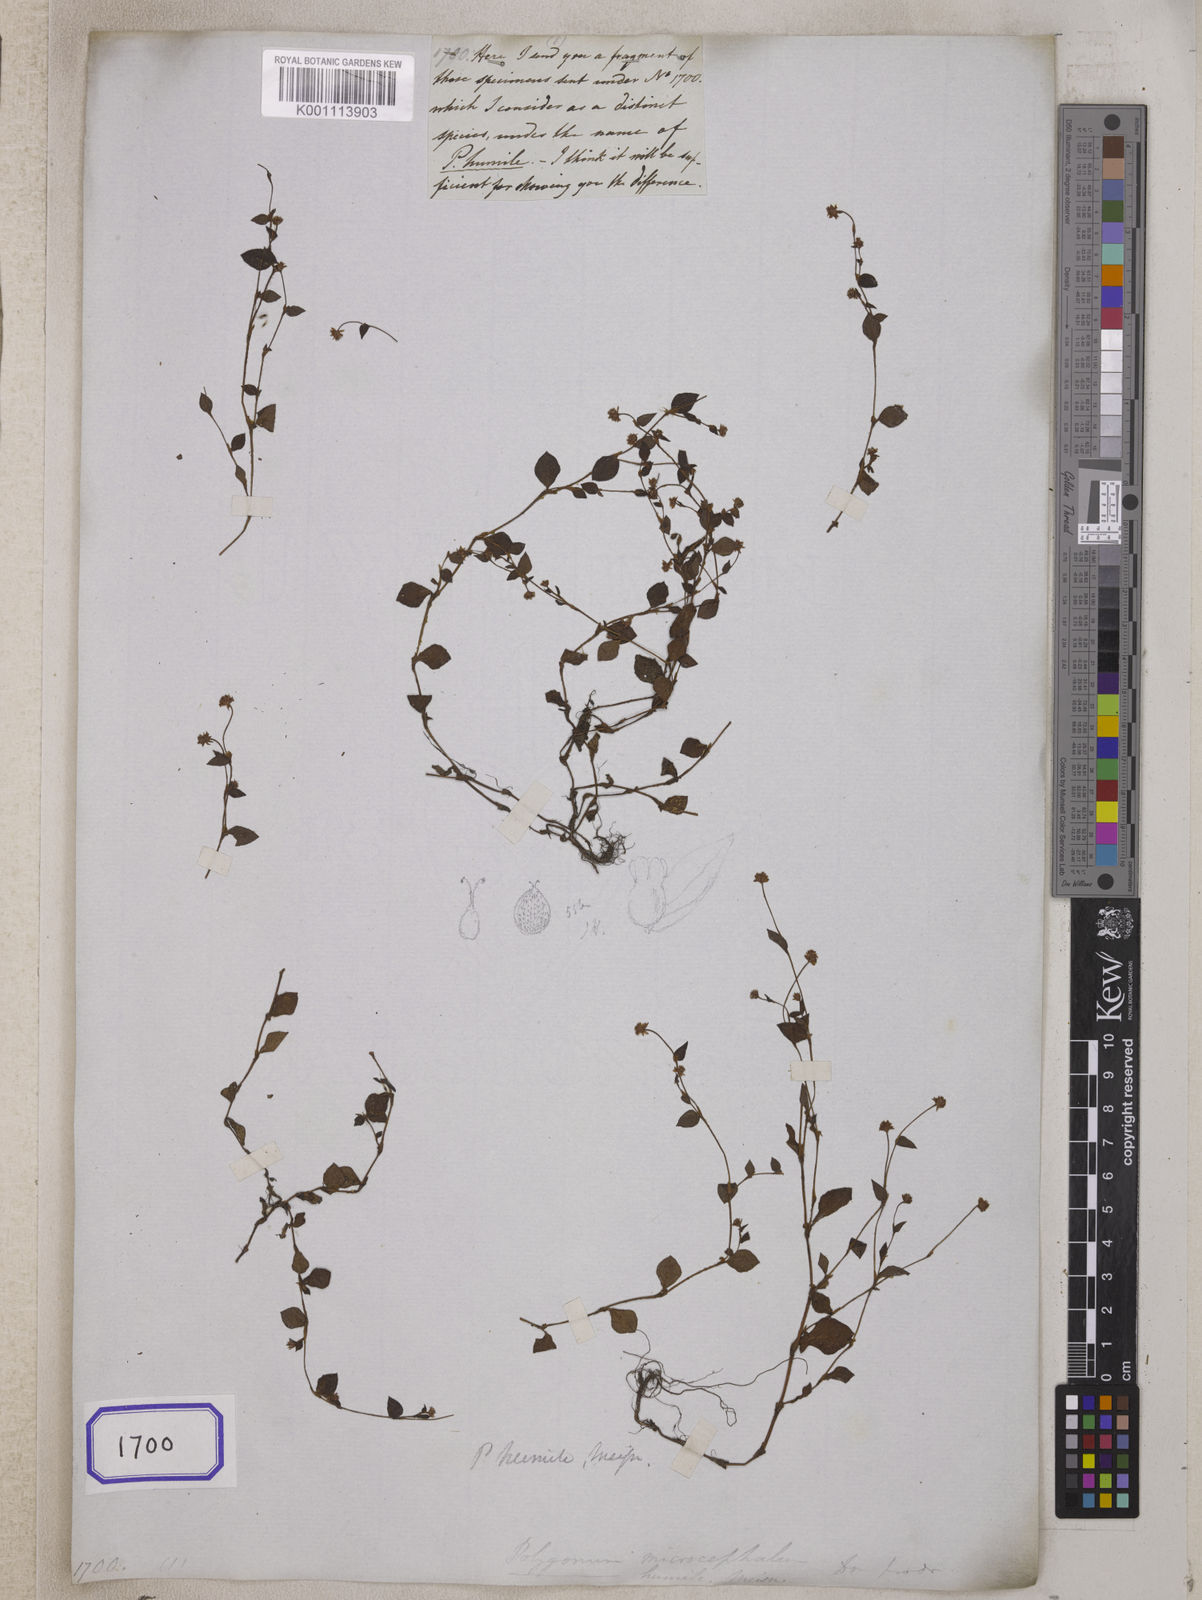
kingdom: Plantae
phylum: Tracheophyta
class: Magnoliopsida
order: Caryophyllales
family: Polygonaceae
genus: Persicaria
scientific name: Persicaria nepalensis
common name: Nepal persicaria
